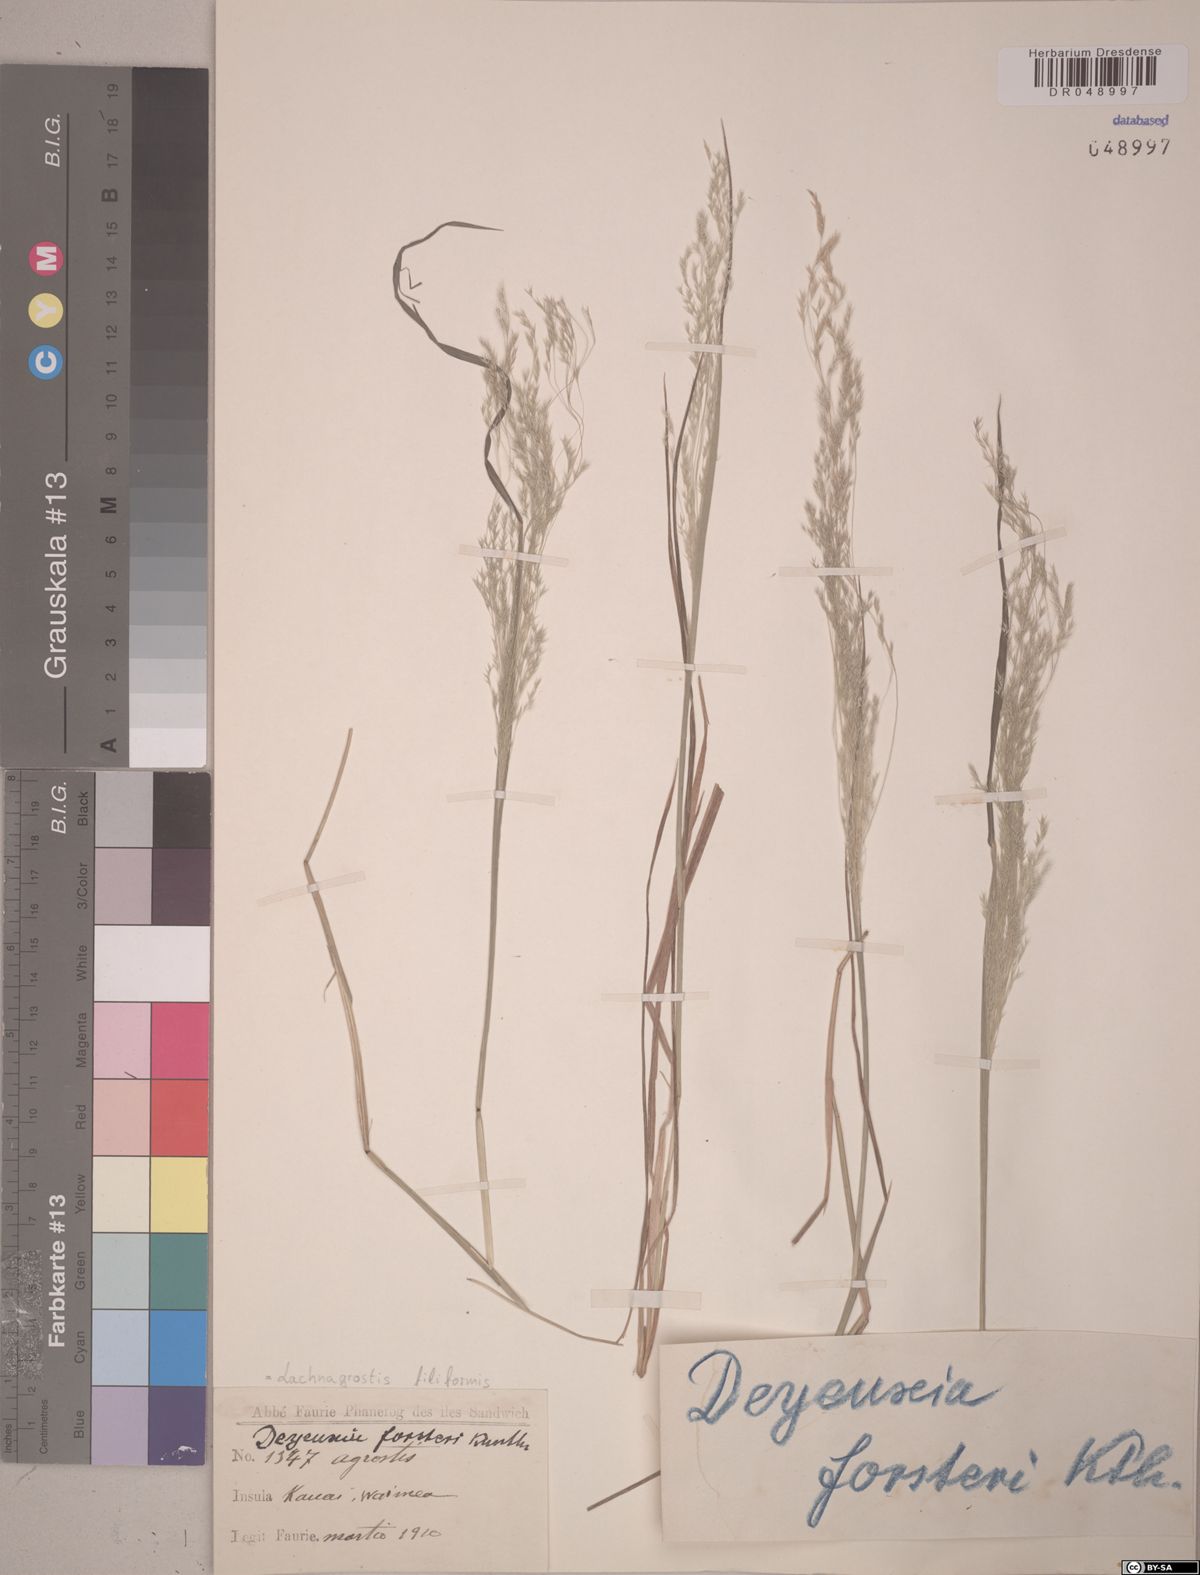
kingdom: Plantae
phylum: Tracheophyta
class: Liliopsida
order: Poales
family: Poaceae
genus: Lachnagrostis
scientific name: Lachnagrostis filiformis
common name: Bentgrass
